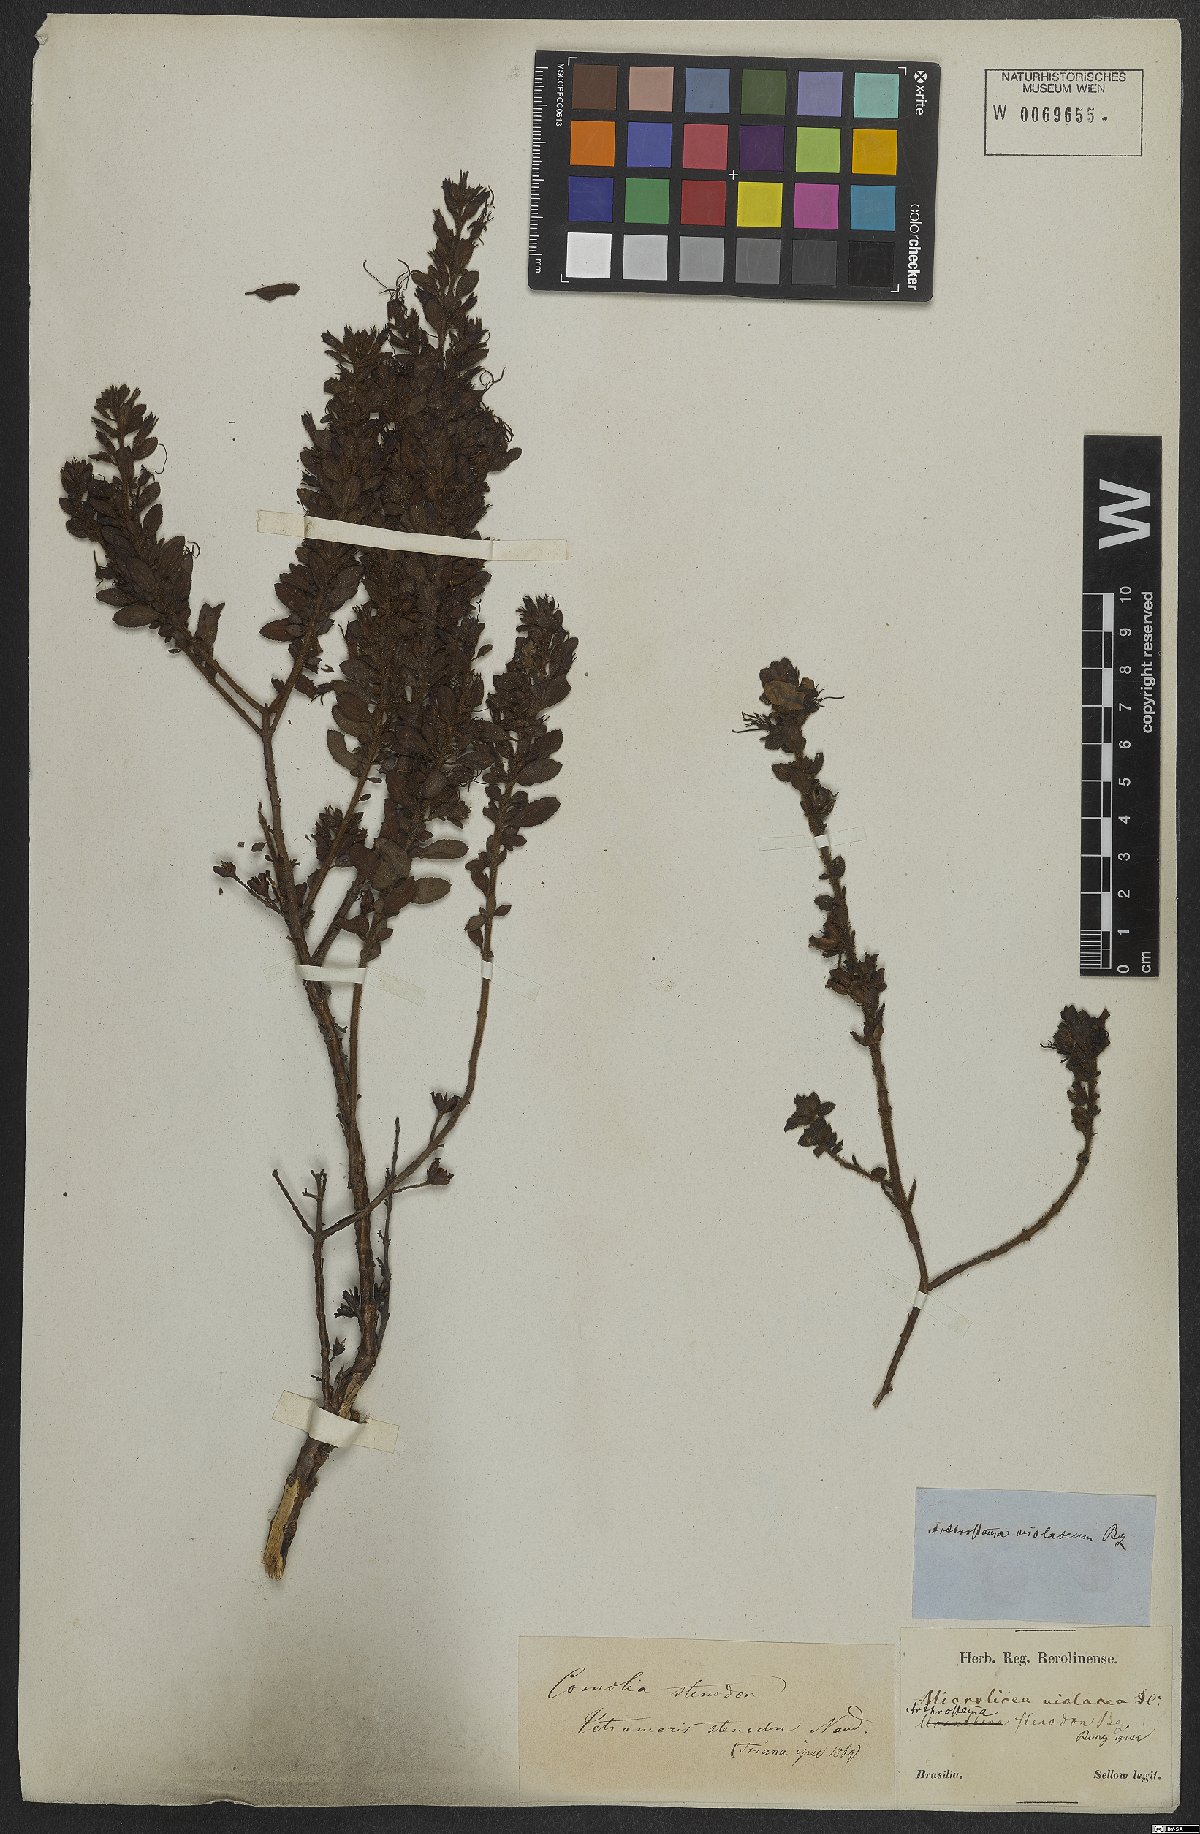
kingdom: Plantae
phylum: Tracheophyta
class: Magnoliopsida
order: Myrtales
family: Melastomataceae
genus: Fritzschia
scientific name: Fritzschia stenodon
